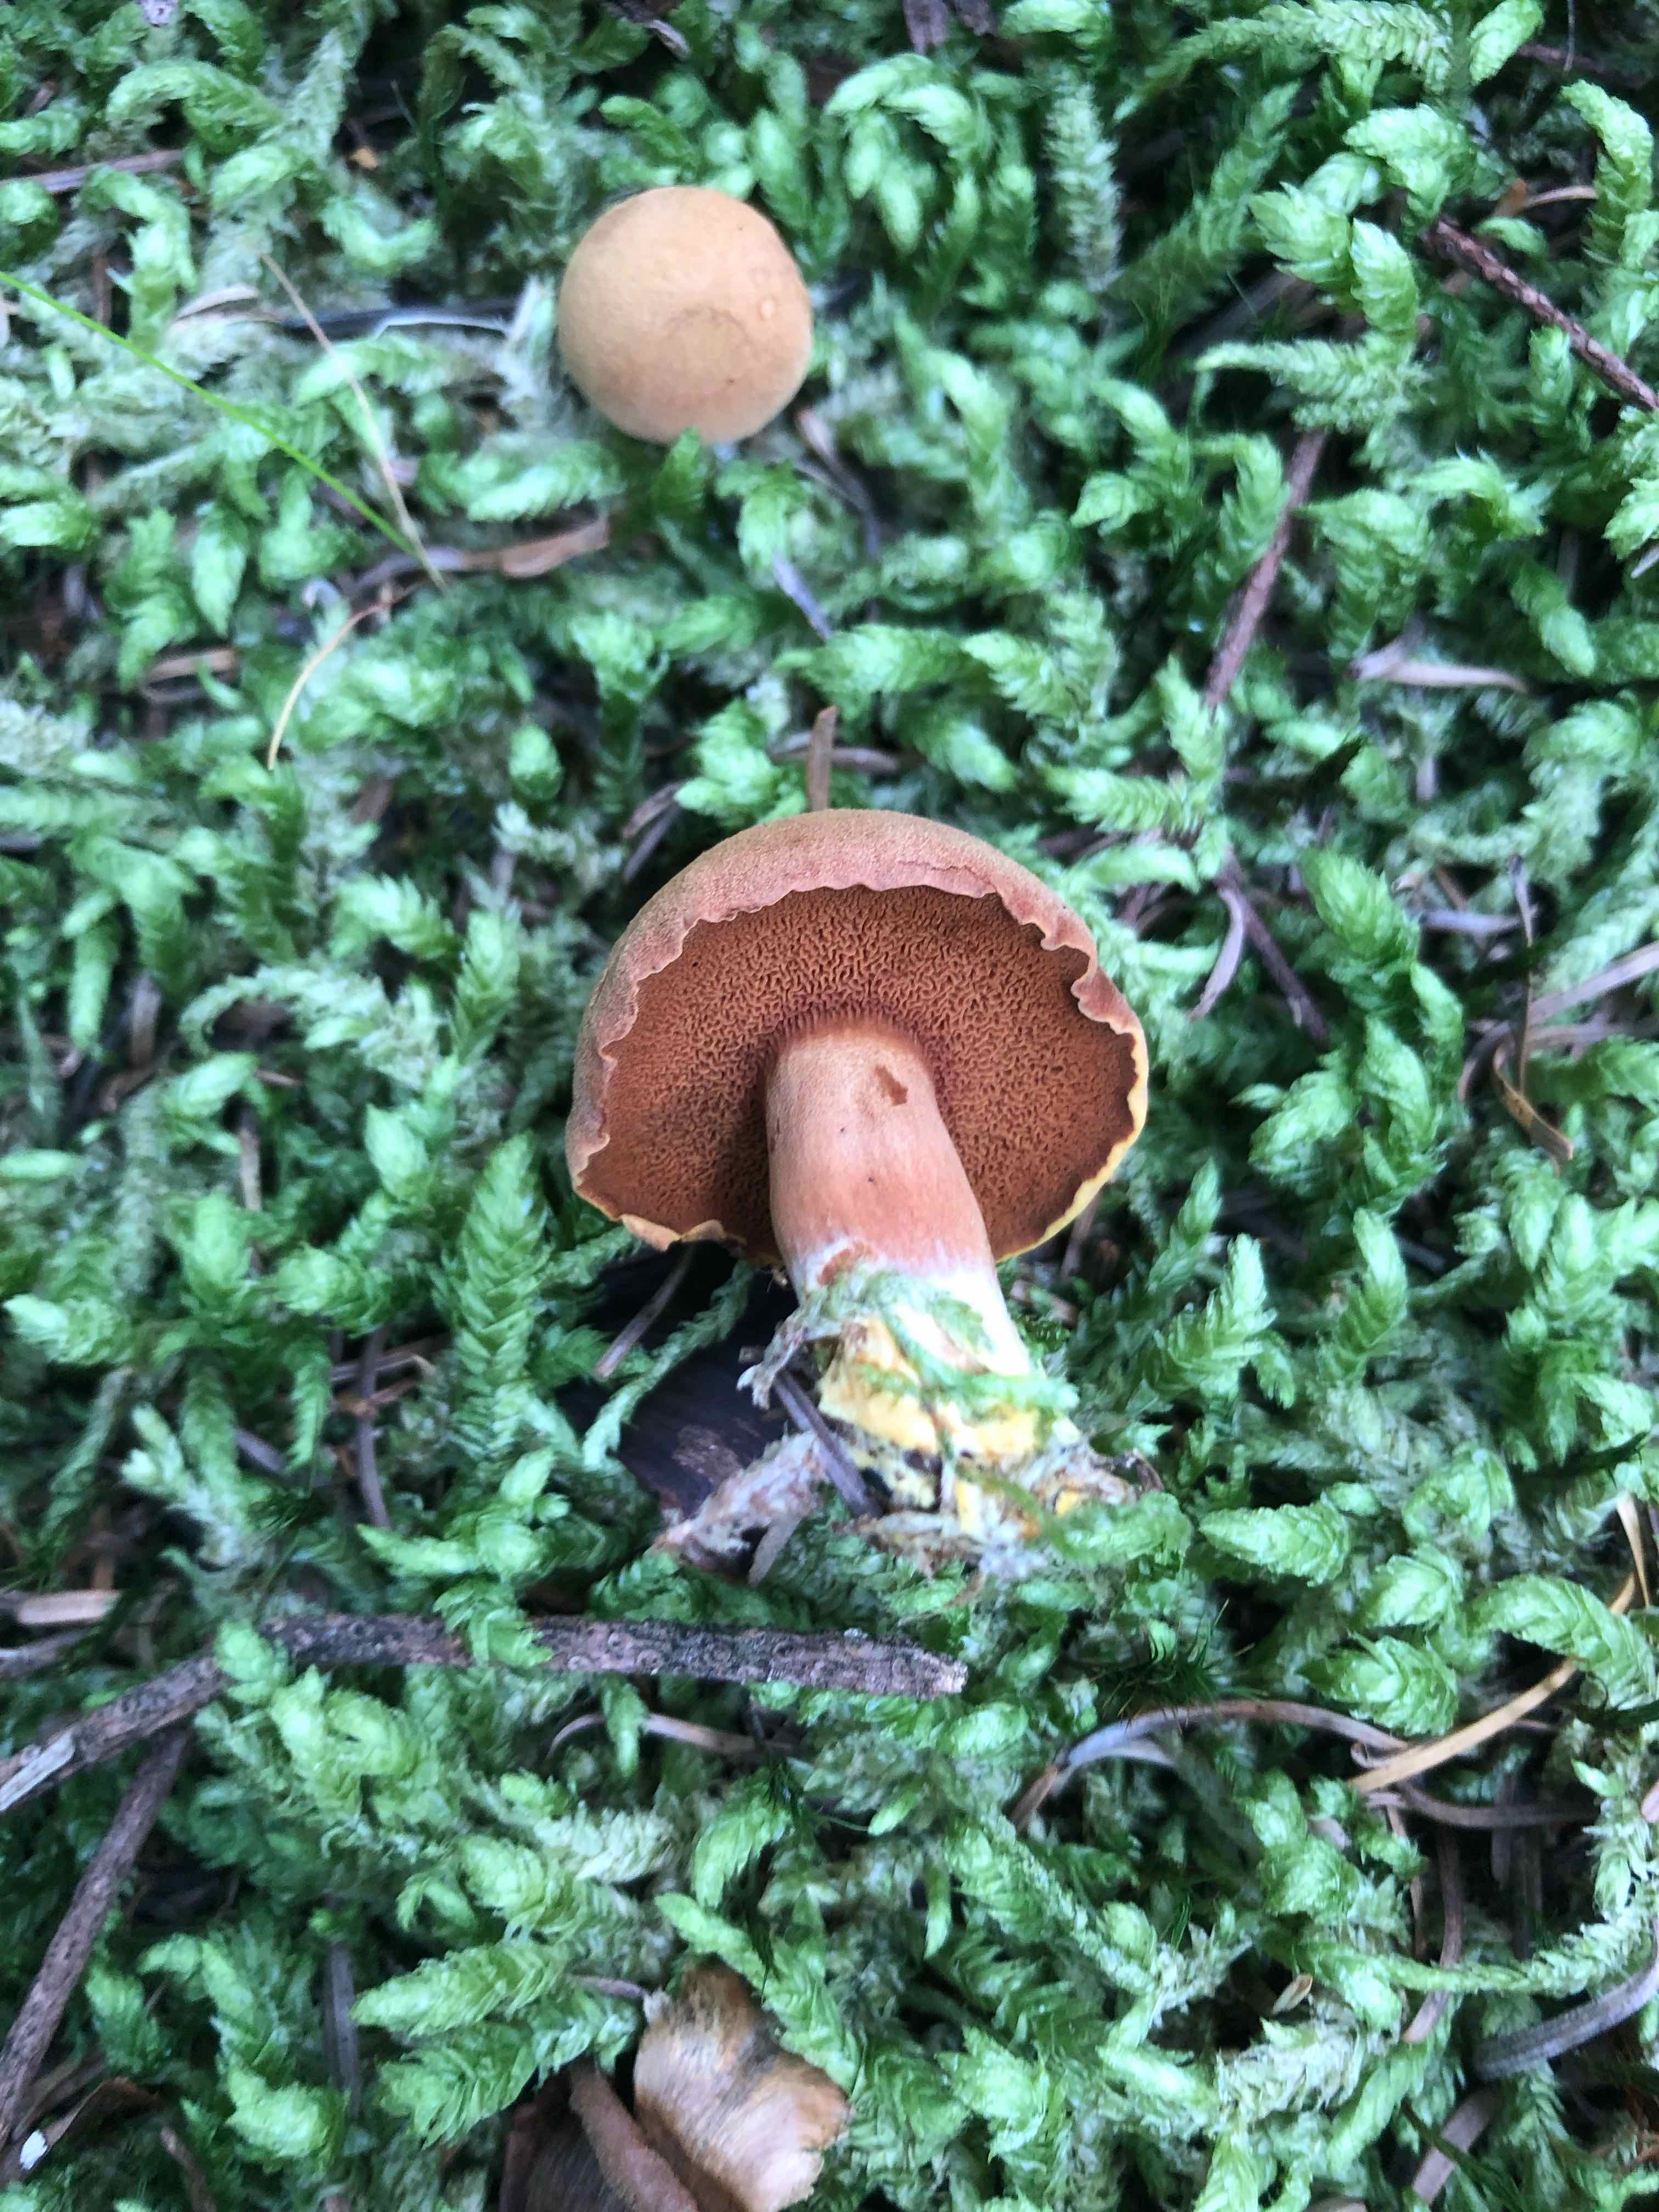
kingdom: Fungi
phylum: Basidiomycota
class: Agaricomycetes
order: Boletales
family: Boletaceae
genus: Chalciporus
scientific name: Chalciporus piperatus
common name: peberrørhat
